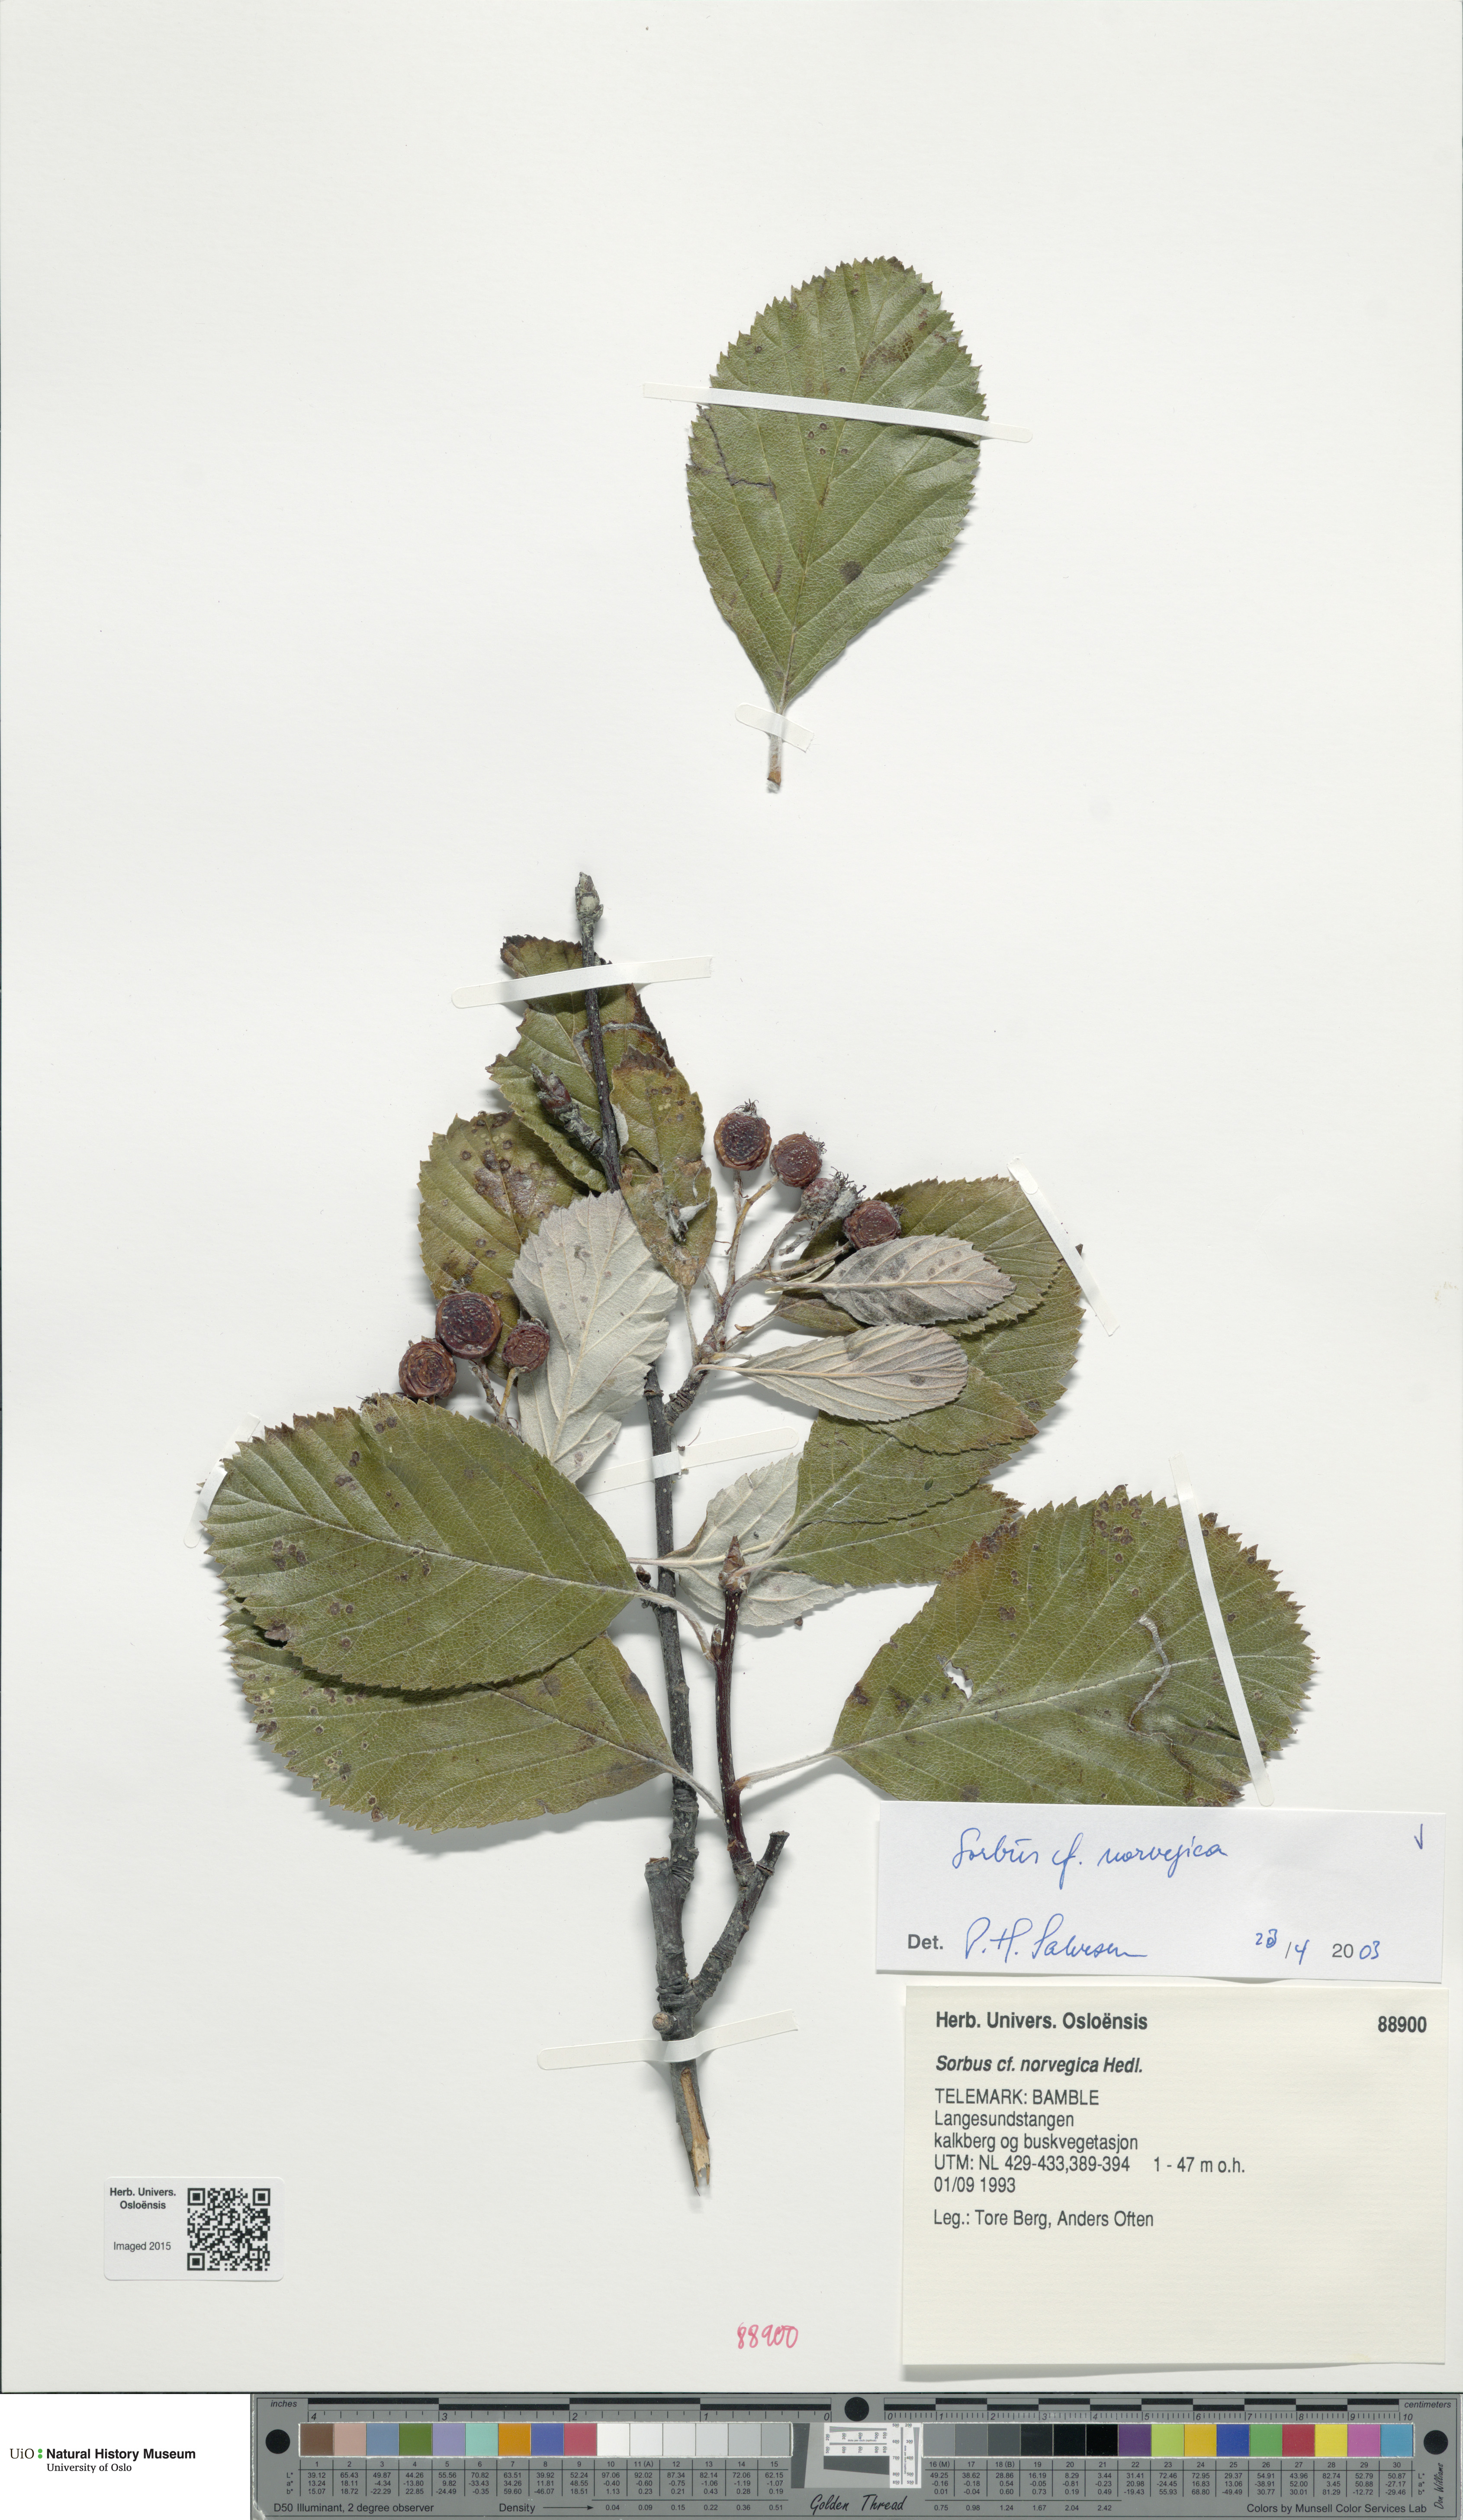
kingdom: Plantae
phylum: Tracheophyta
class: Magnoliopsida
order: Rosales
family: Rosaceae
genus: Aria
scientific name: Aria obtusifolia
